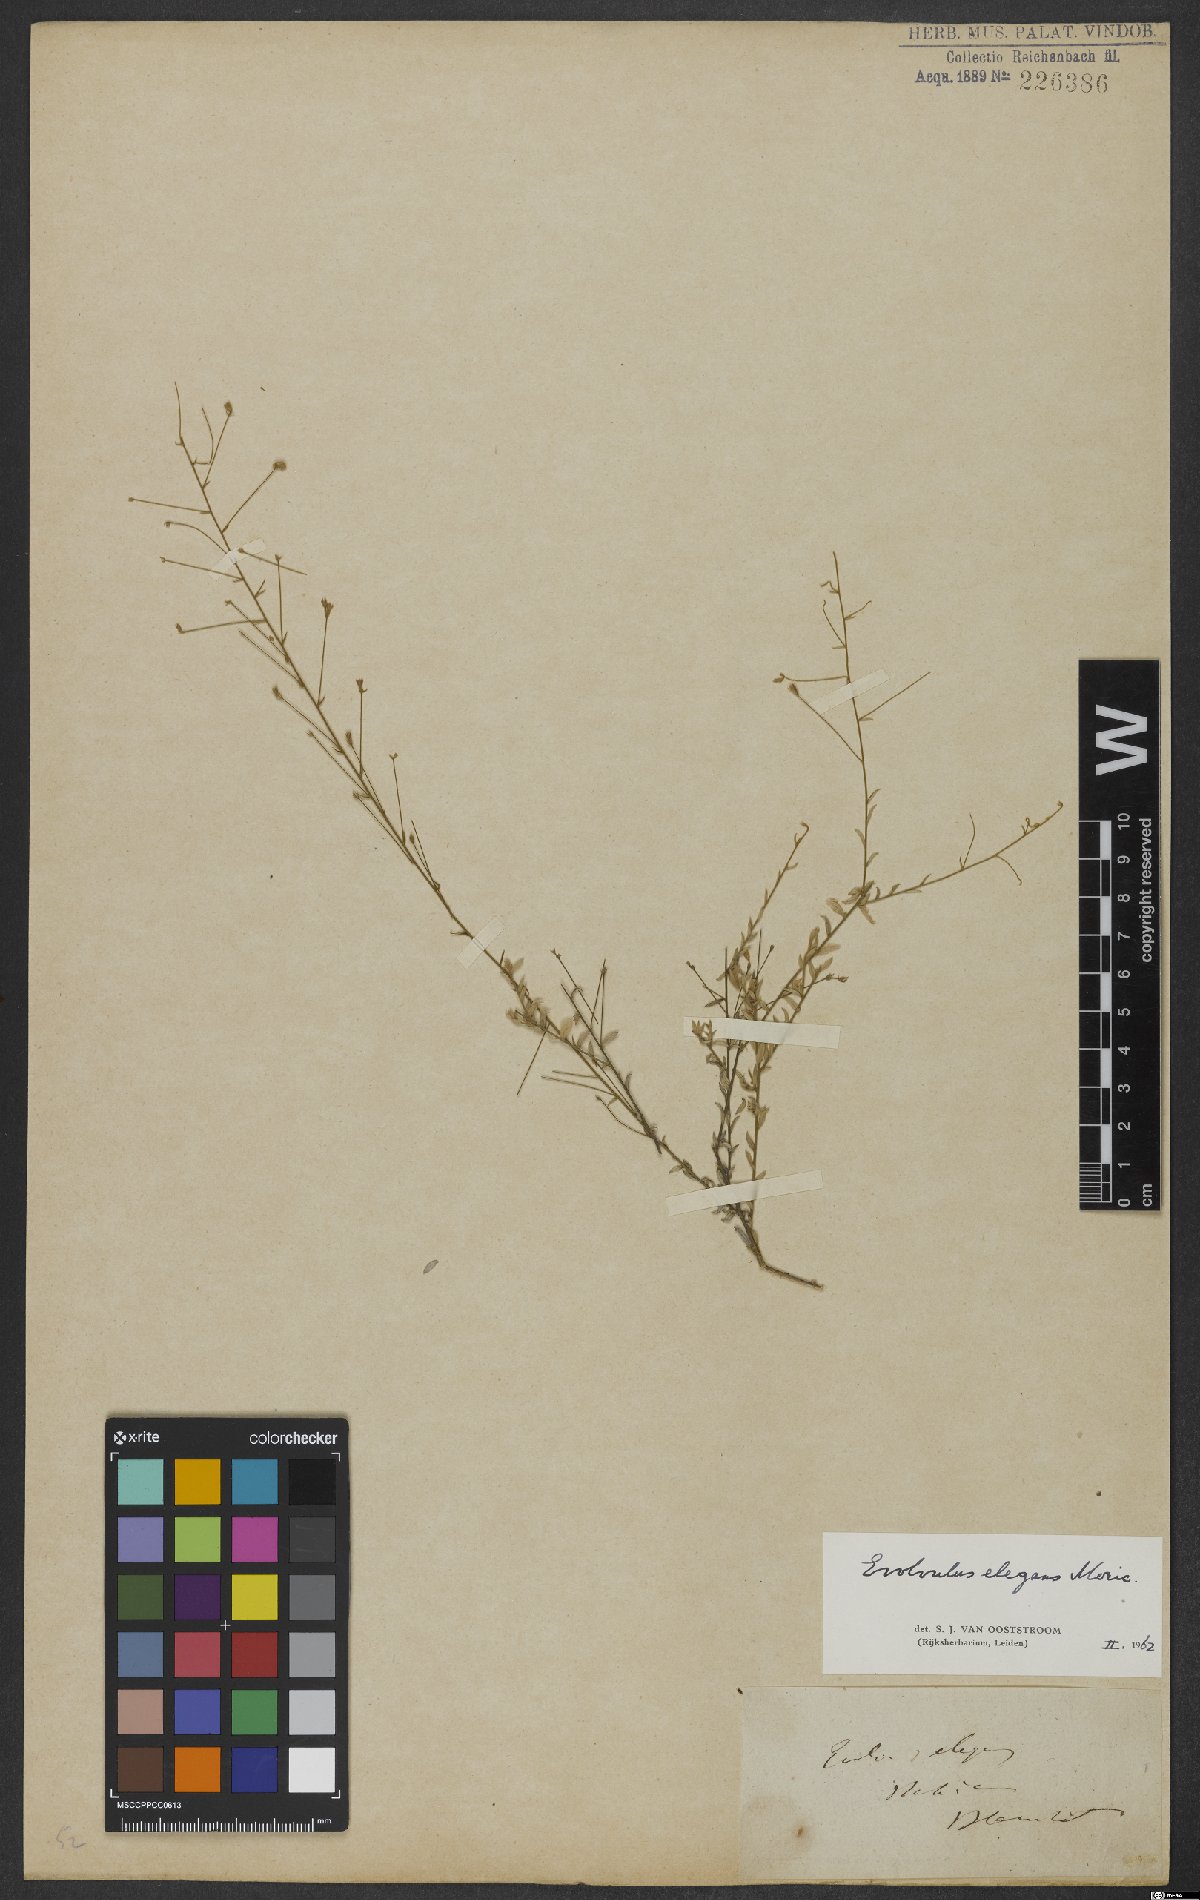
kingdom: Plantae
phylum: Tracheophyta
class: Magnoliopsida
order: Solanales
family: Convolvulaceae
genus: Evolvulus
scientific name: Evolvulus elegans
